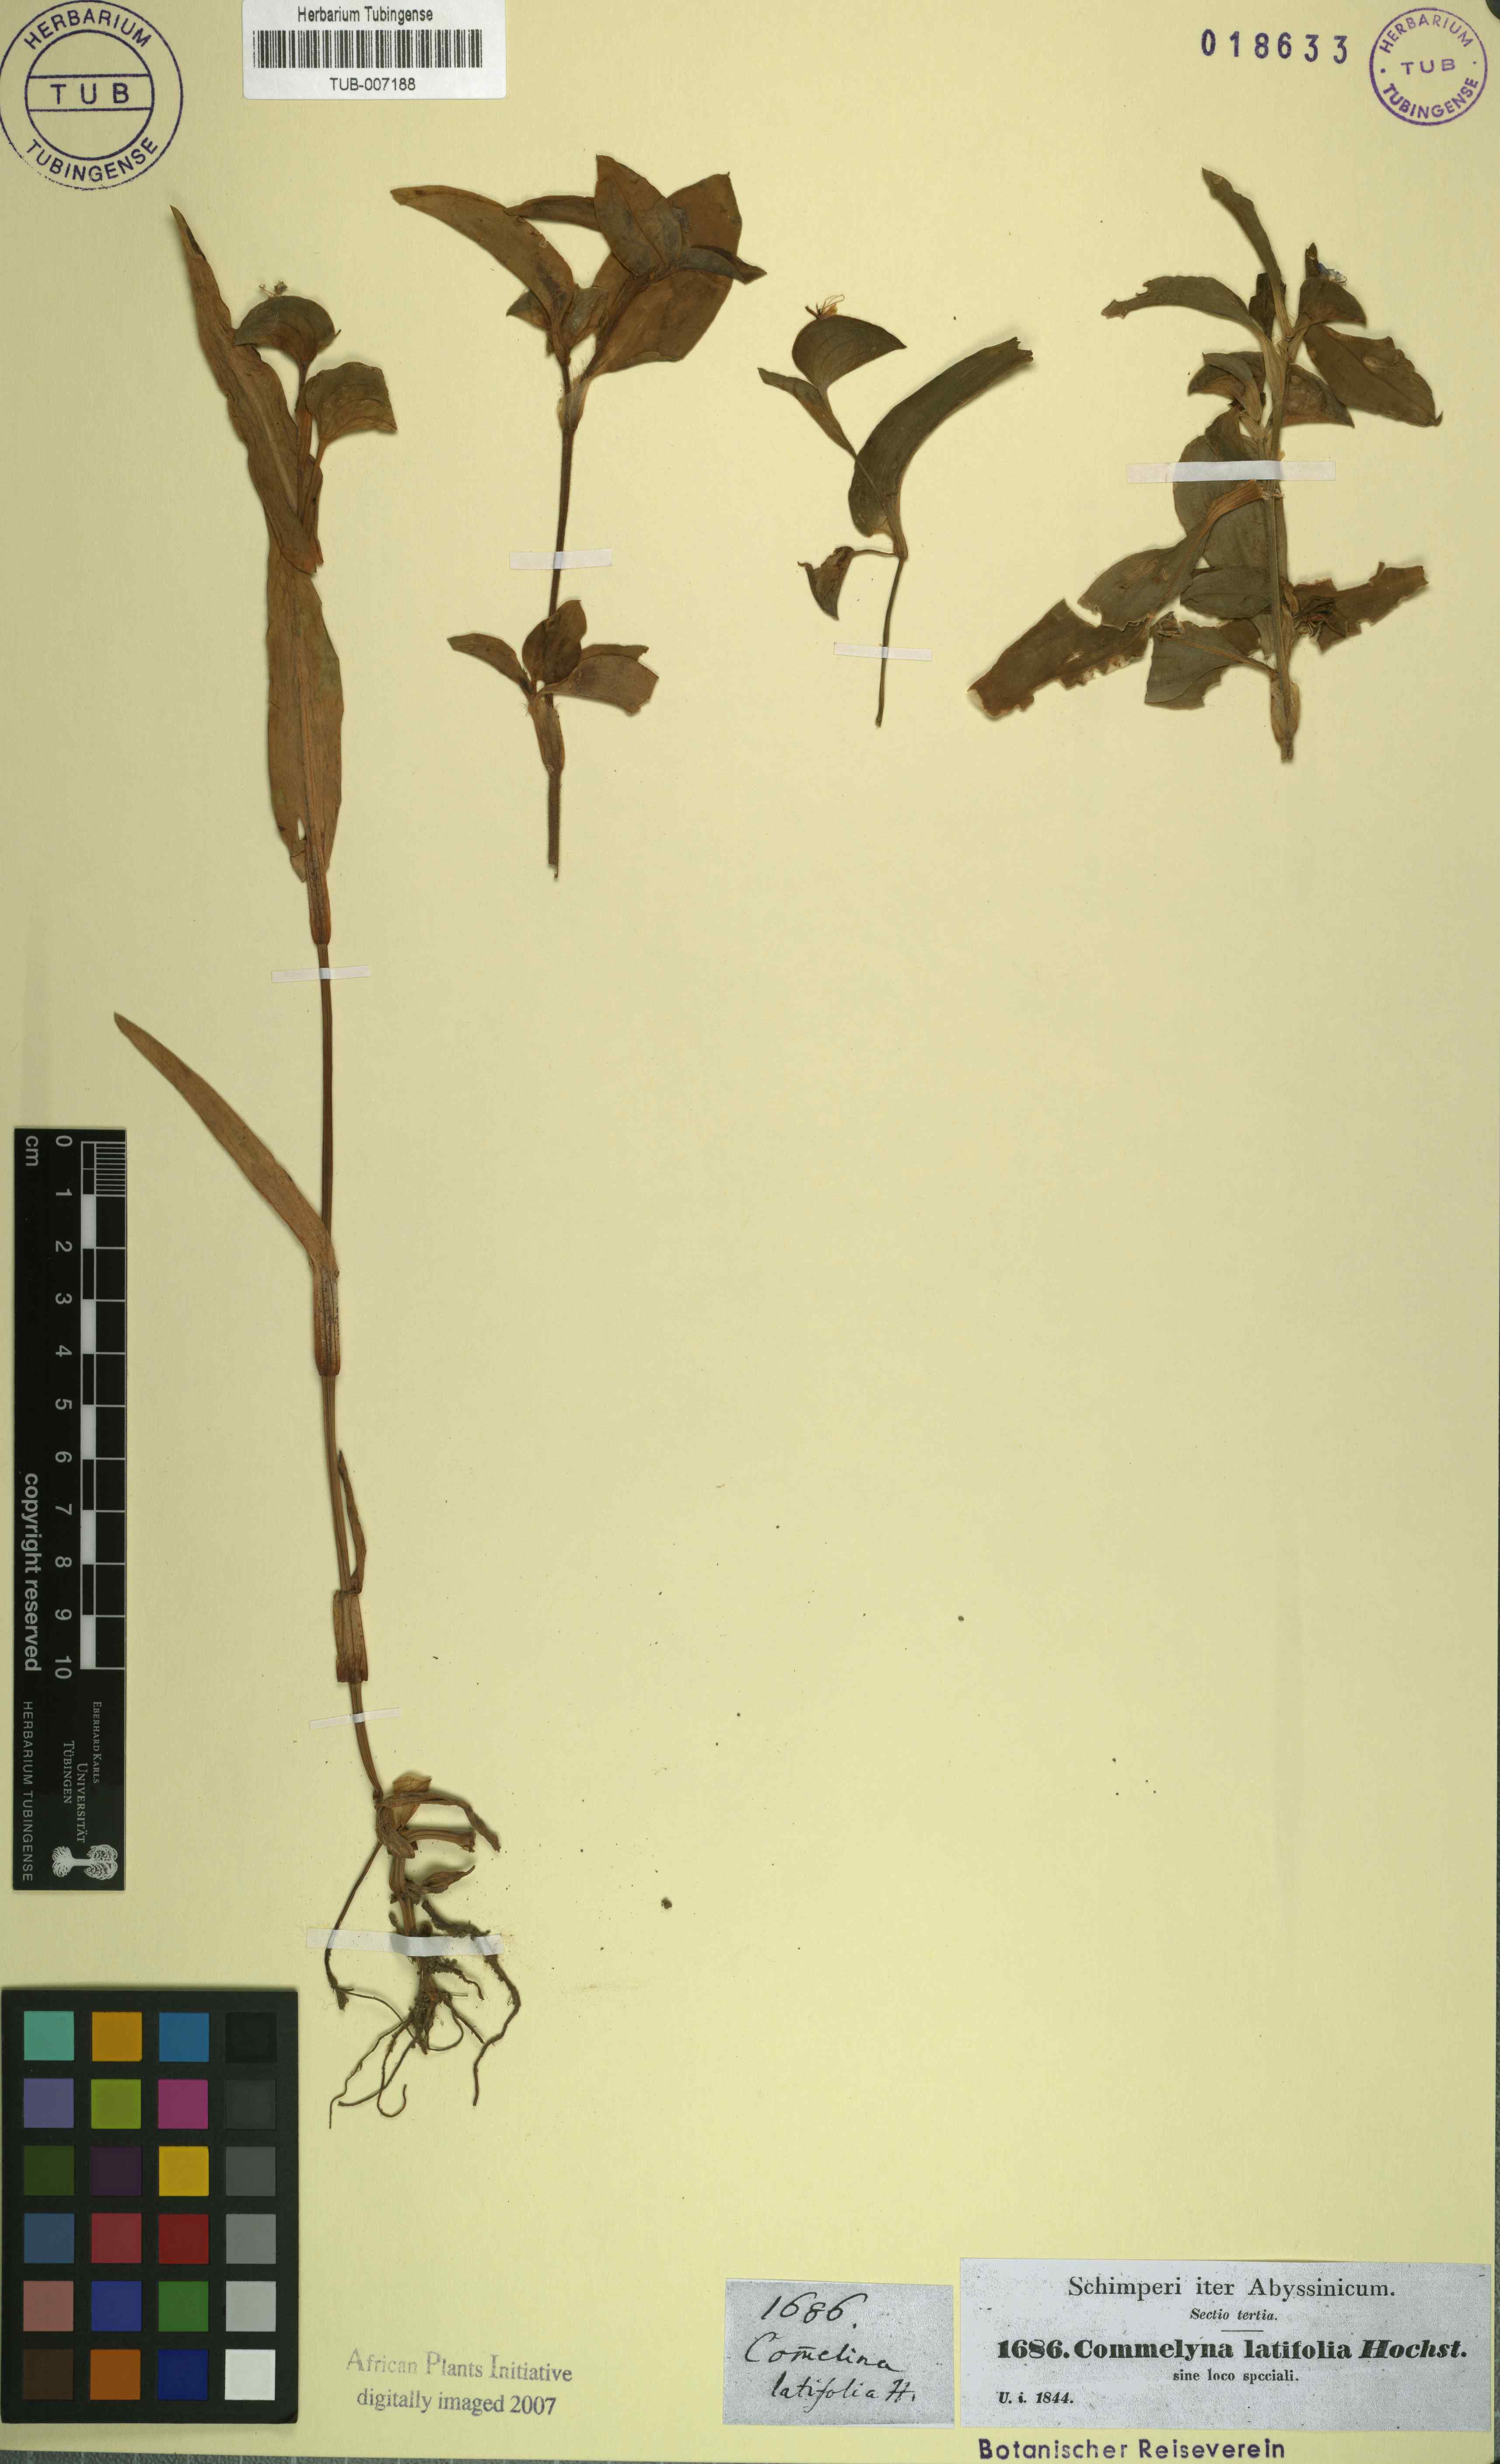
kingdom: Plantae
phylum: Tracheophyta
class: Liliopsida
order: Commelinales
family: Commelinaceae
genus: Commelina
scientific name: Commelina latifolia
